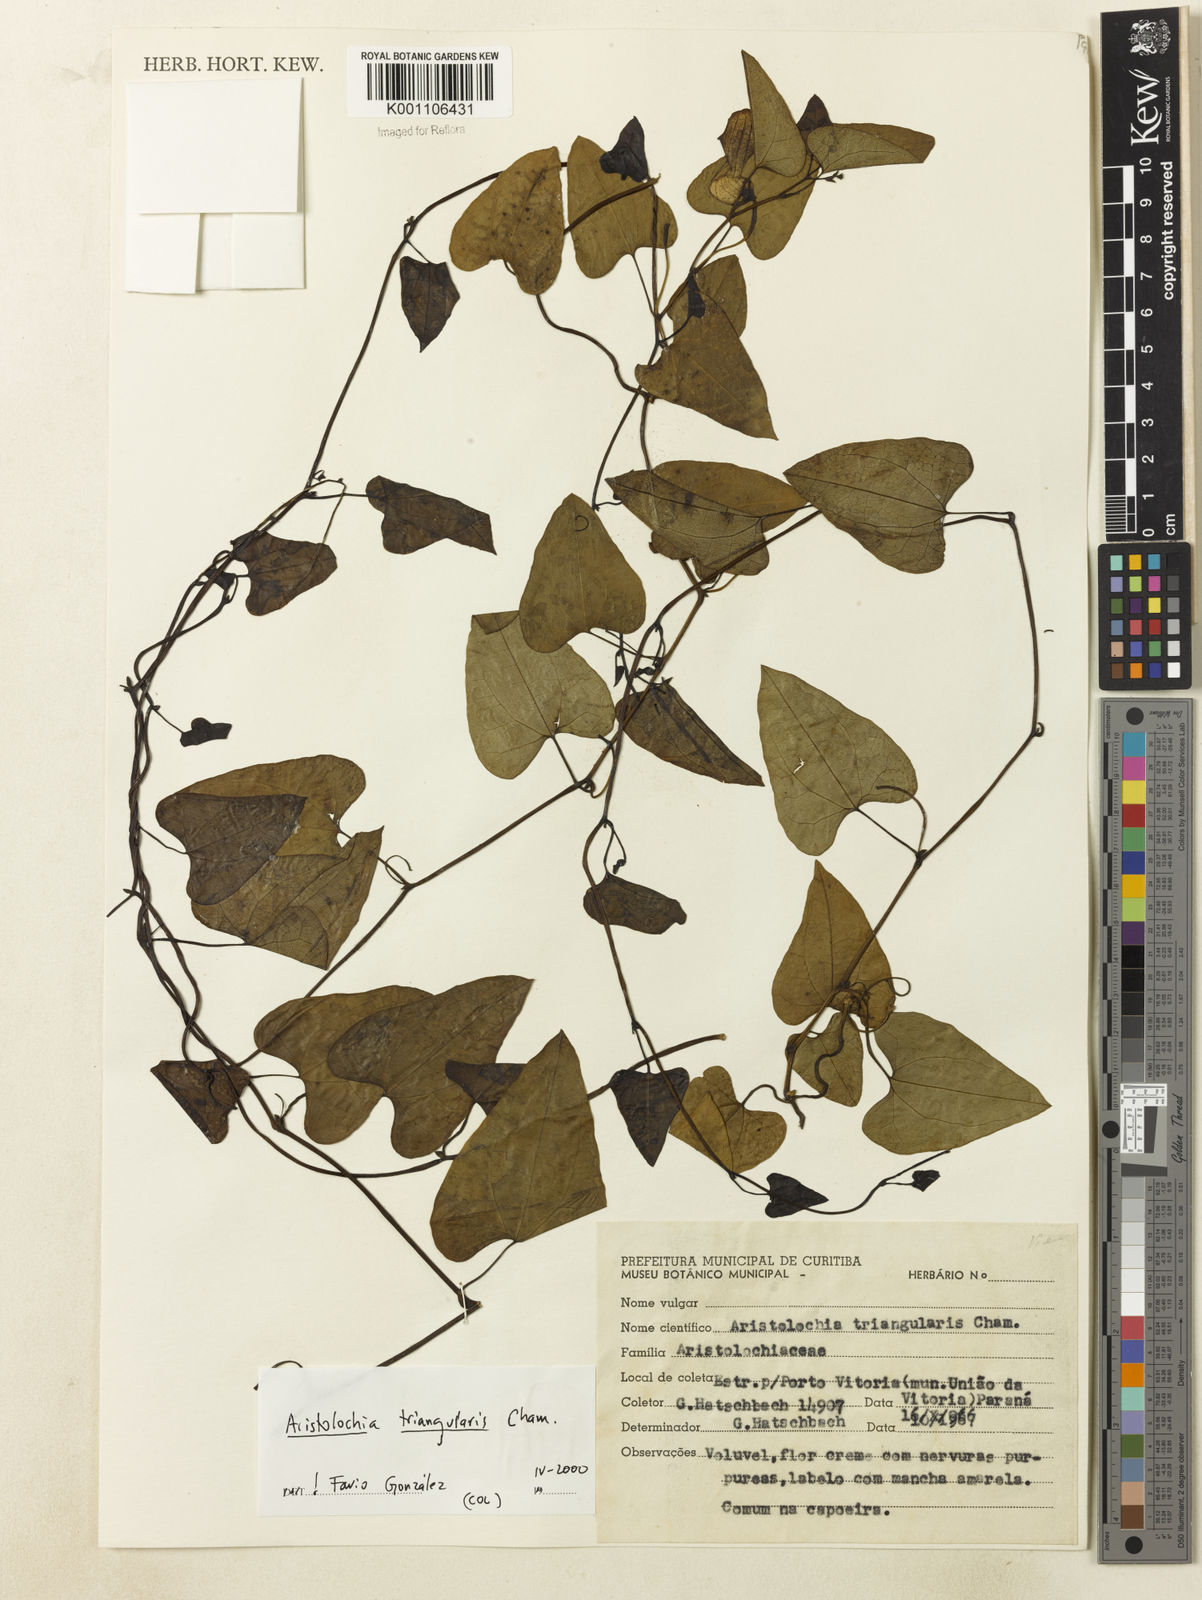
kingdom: Plantae
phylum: Tracheophyta
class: Magnoliopsida
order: Piperales
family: Aristolochiaceae
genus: Aristolochia
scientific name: Aristolochia triangularis
